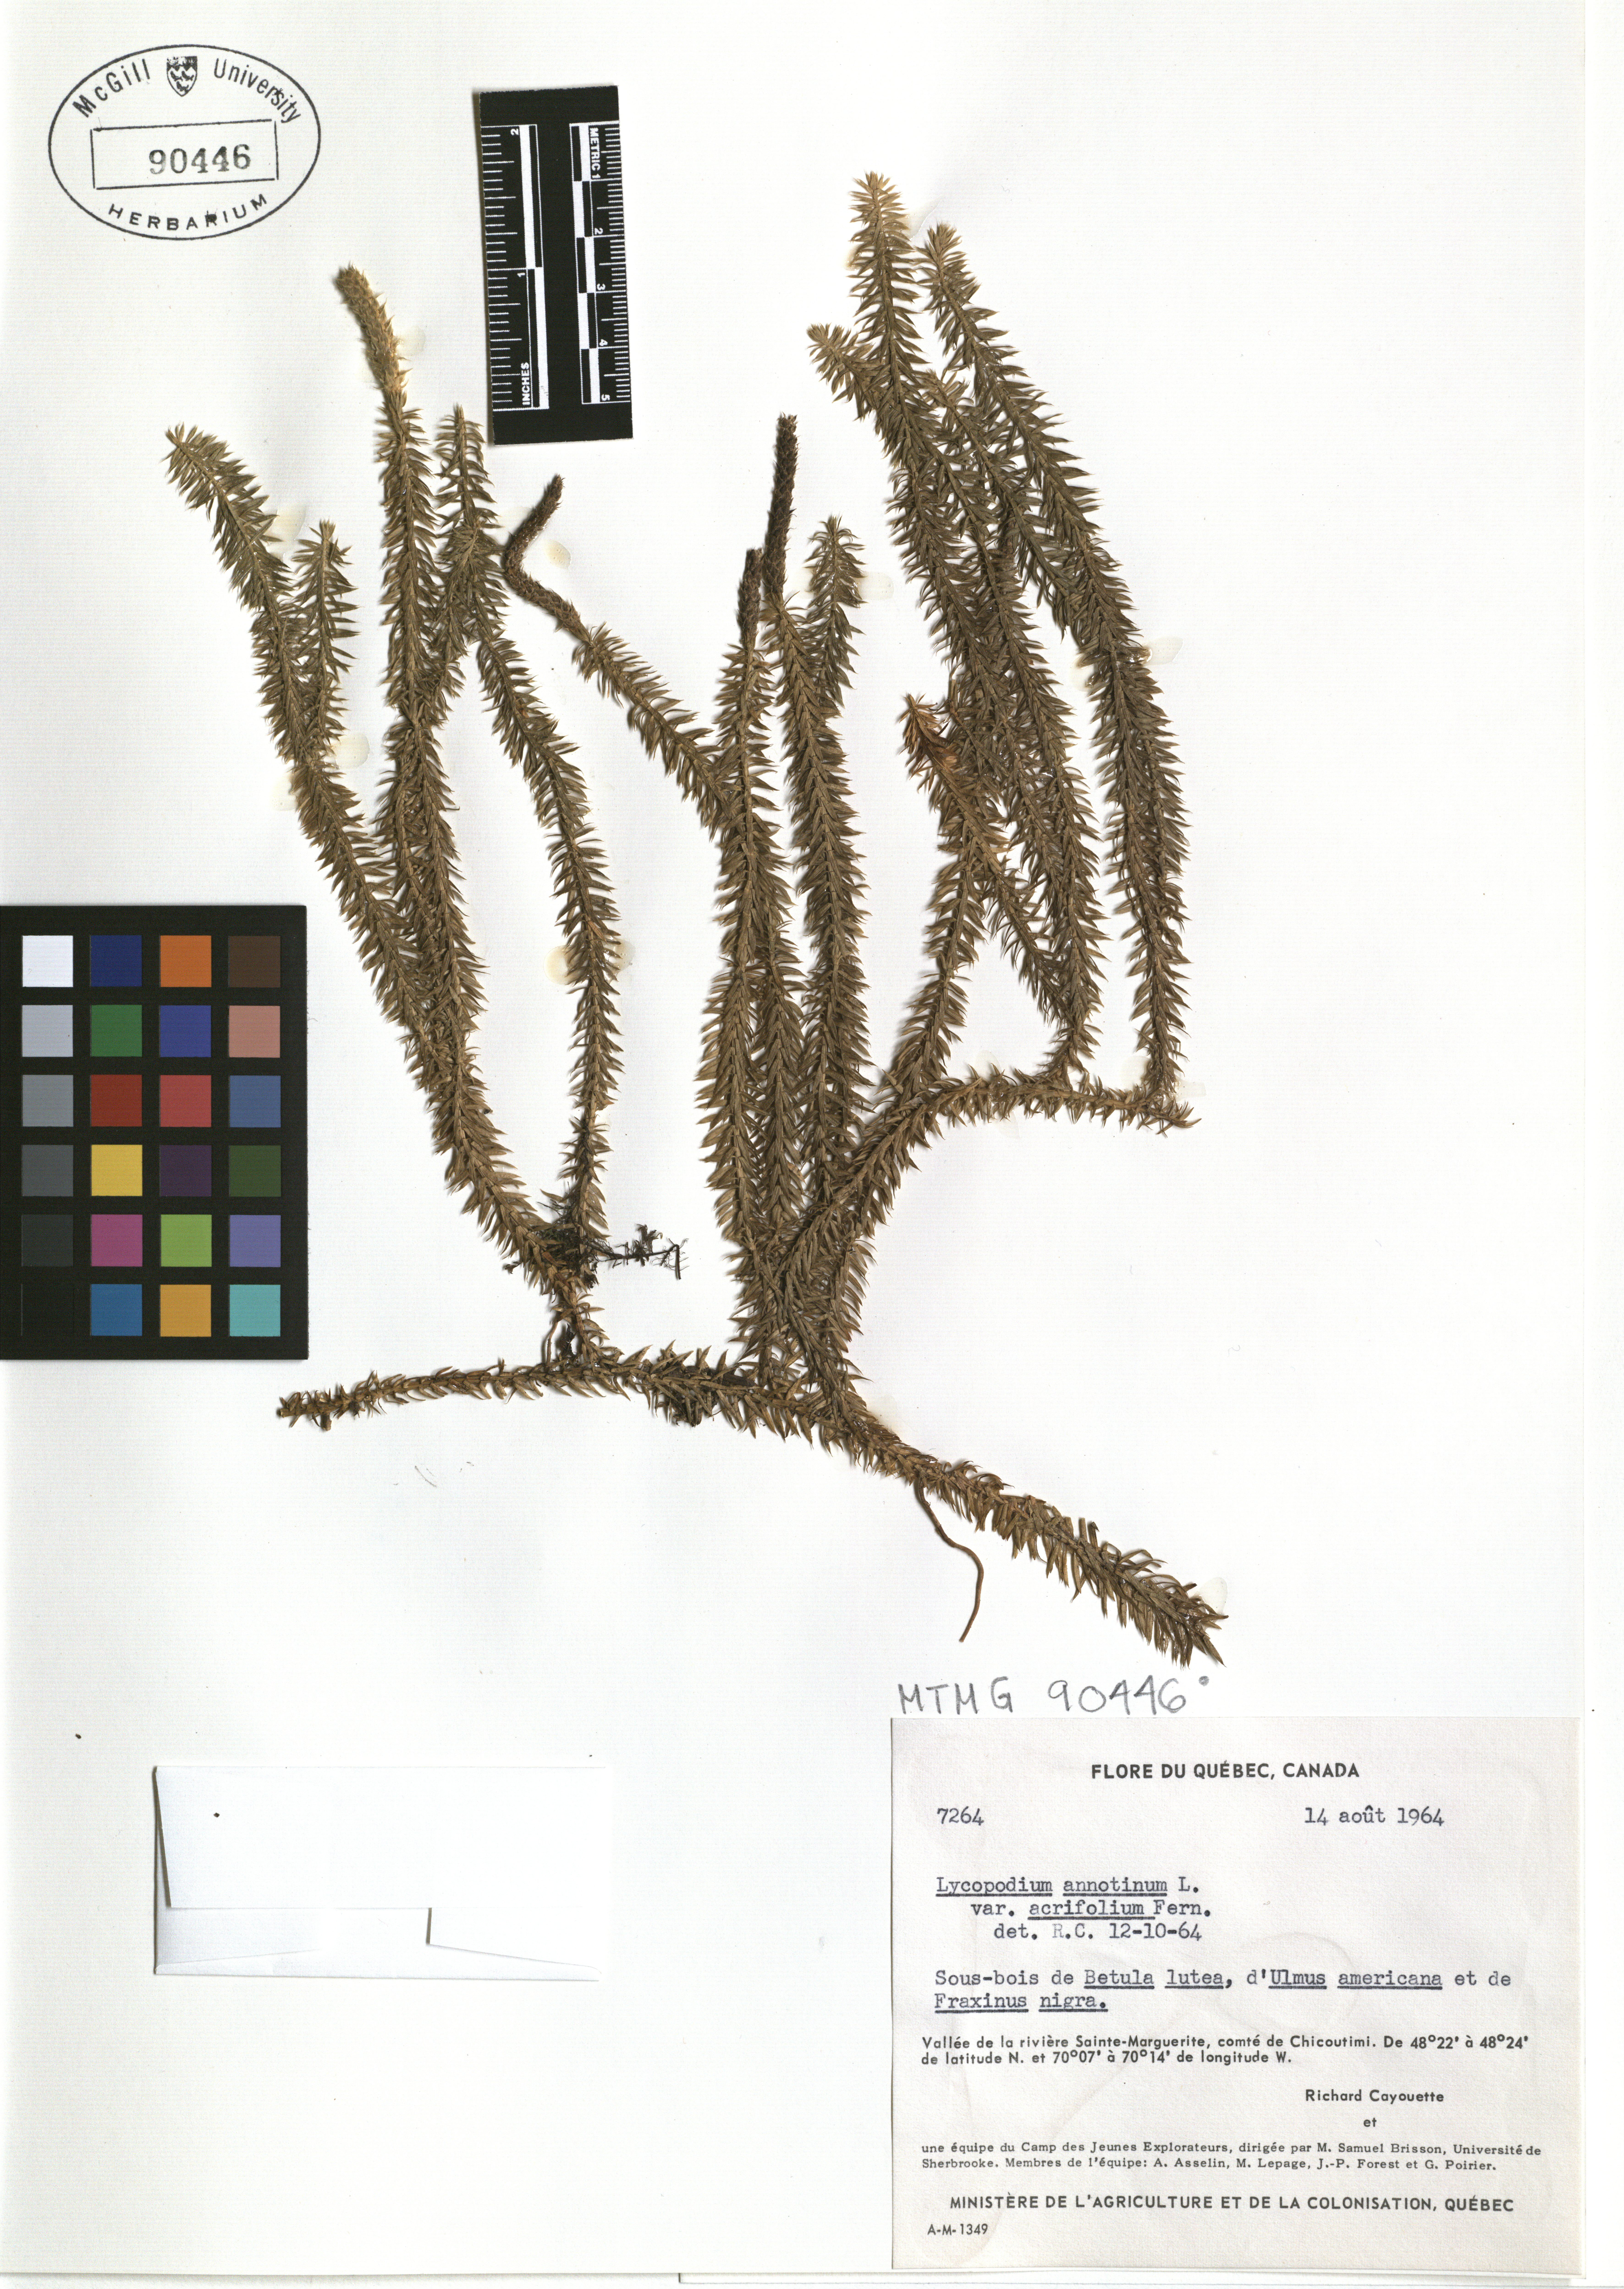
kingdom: Plantae
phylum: Tracheophyta
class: Lycopodiopsida
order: Lycopodiales
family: Lycopodiaceae
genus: Spinulum
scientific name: Spinulum annotinum
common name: Interrupted club-moss
